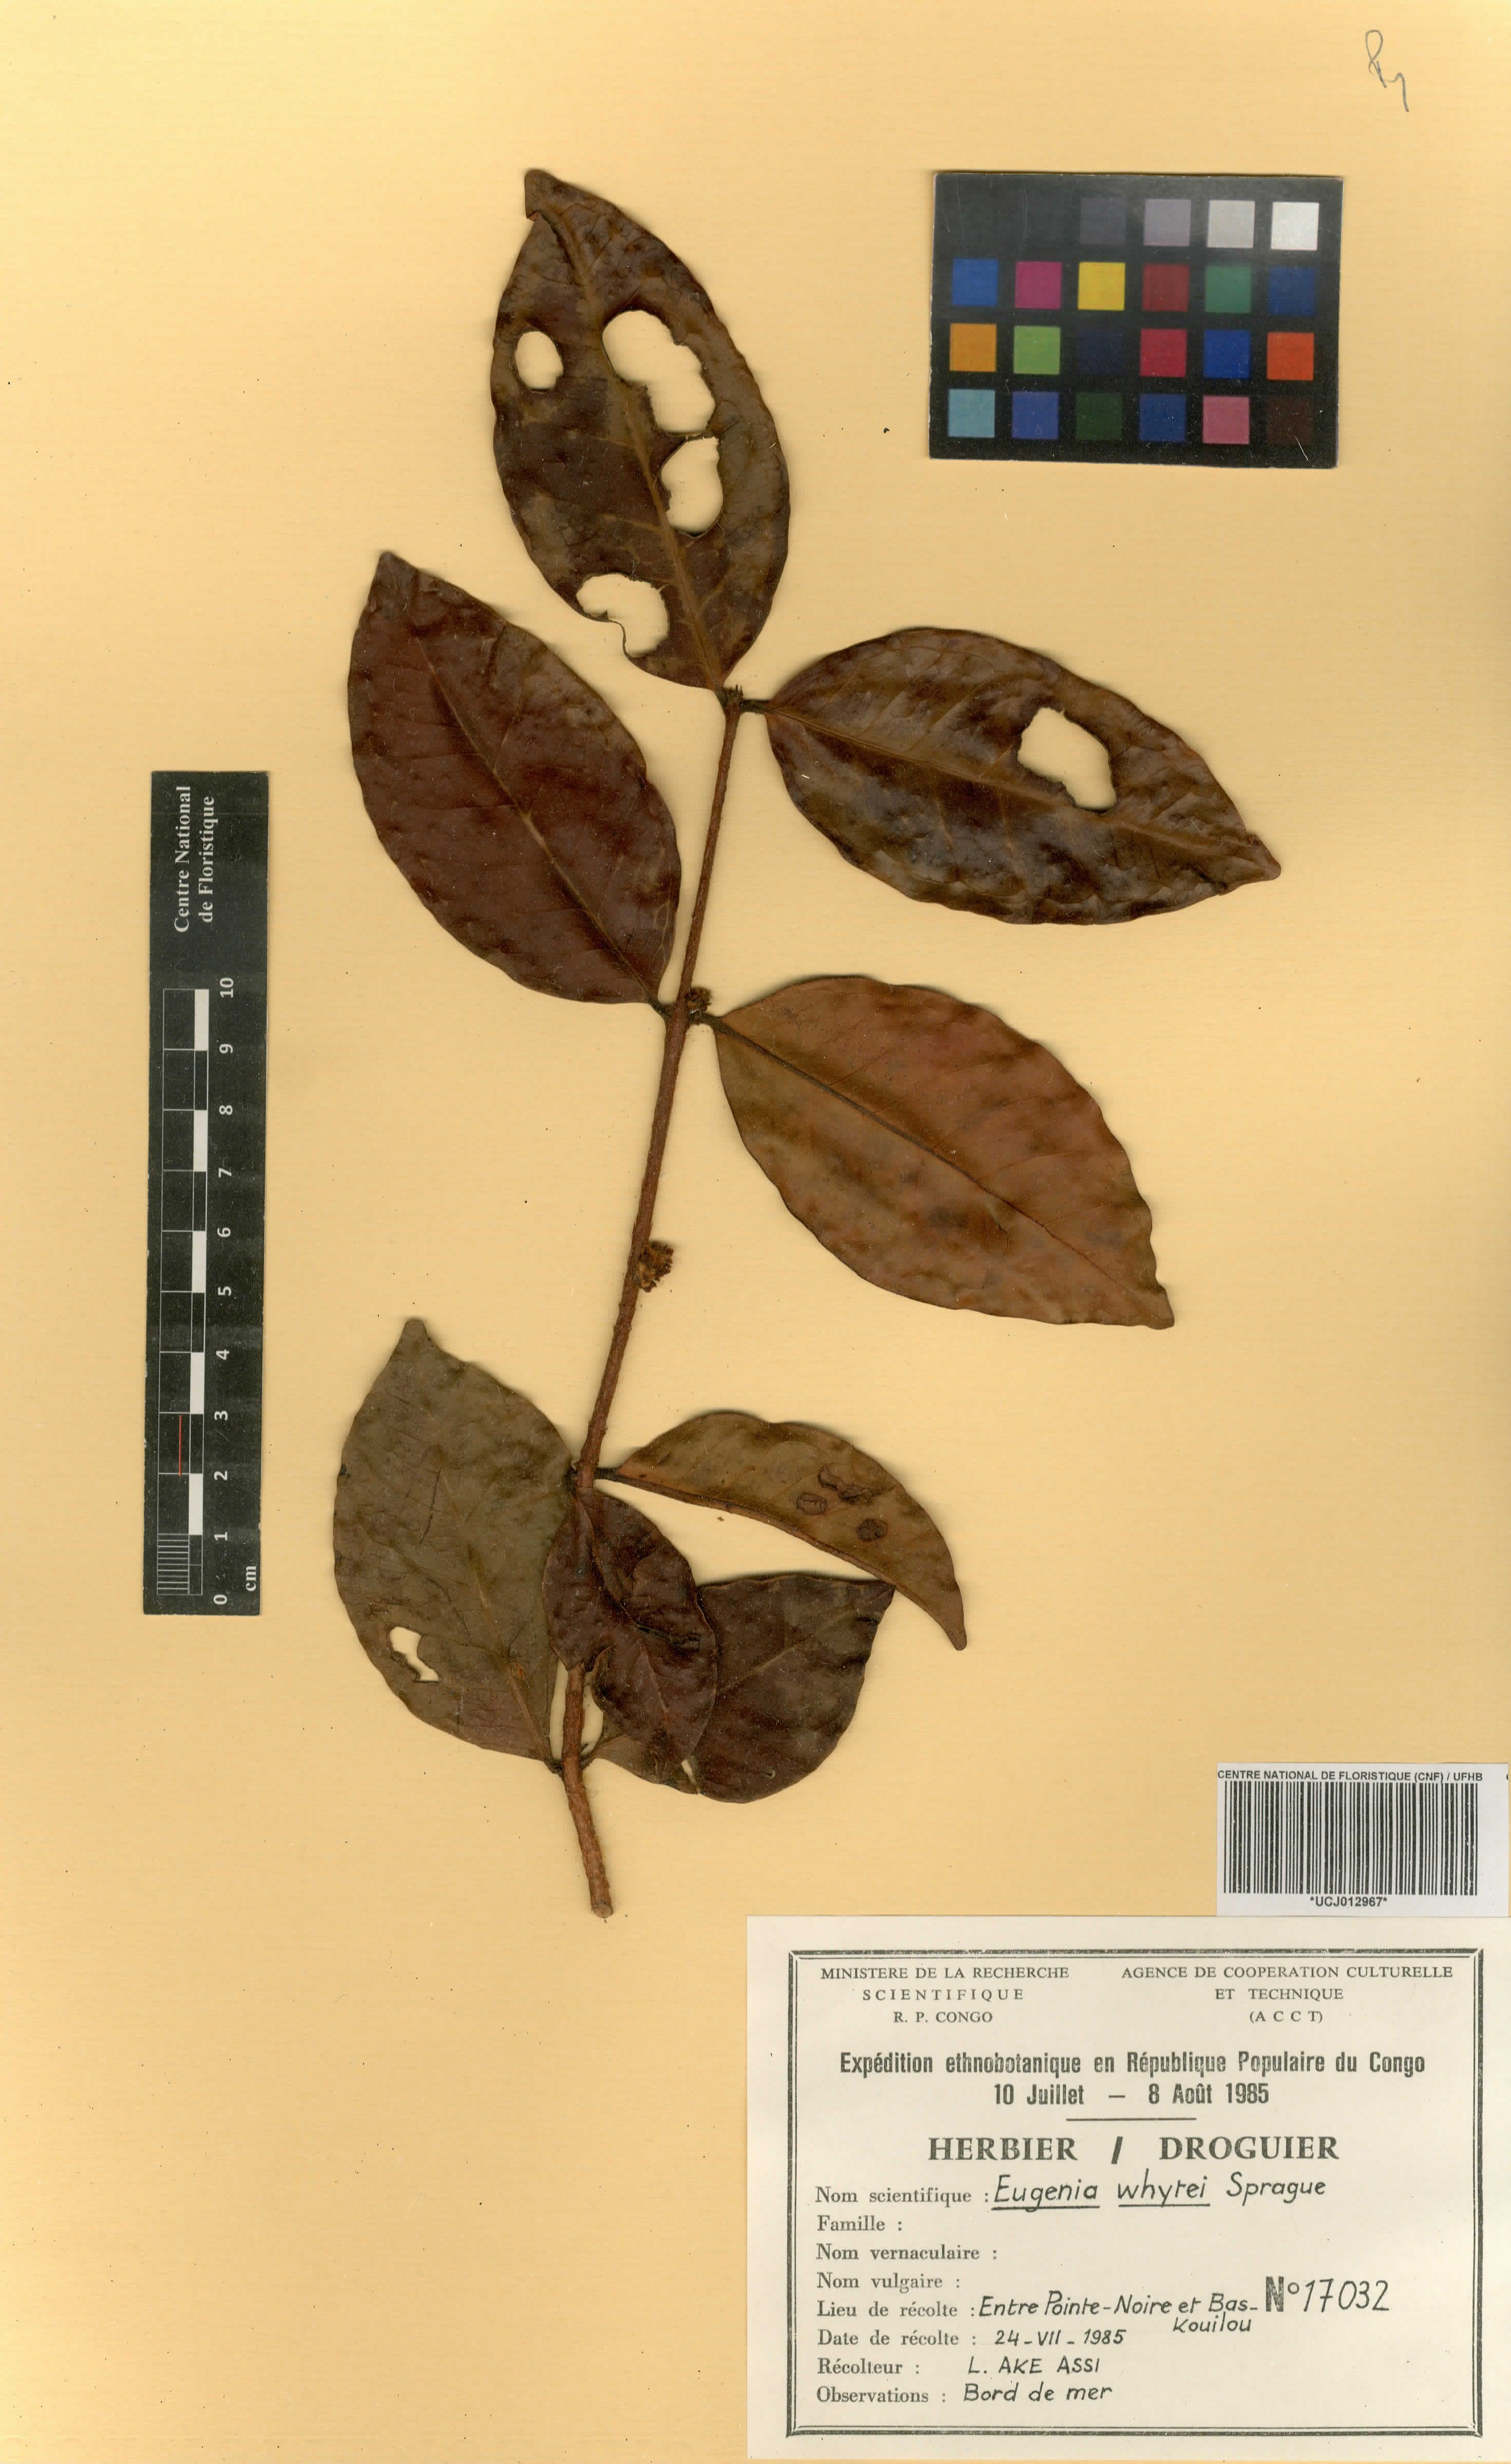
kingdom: Plantae
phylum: Tracheophyta
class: Magnoliopsida
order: Myrtales
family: Myrtaceae
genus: Eugenia
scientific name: Eugenia whytei
